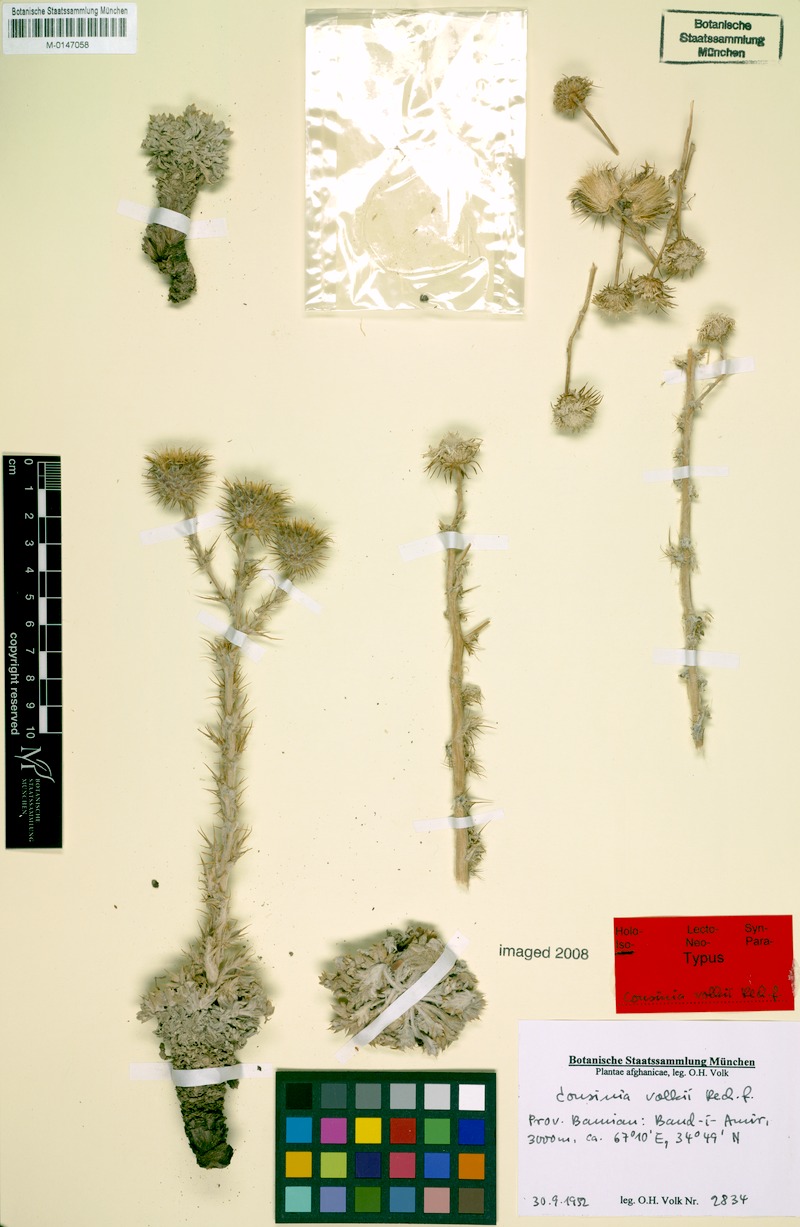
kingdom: Plantae
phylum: Tracheophyta
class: Magnoliopsida
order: Asterales
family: Asteraceae
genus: Cousinia
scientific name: Cousinia volkii
